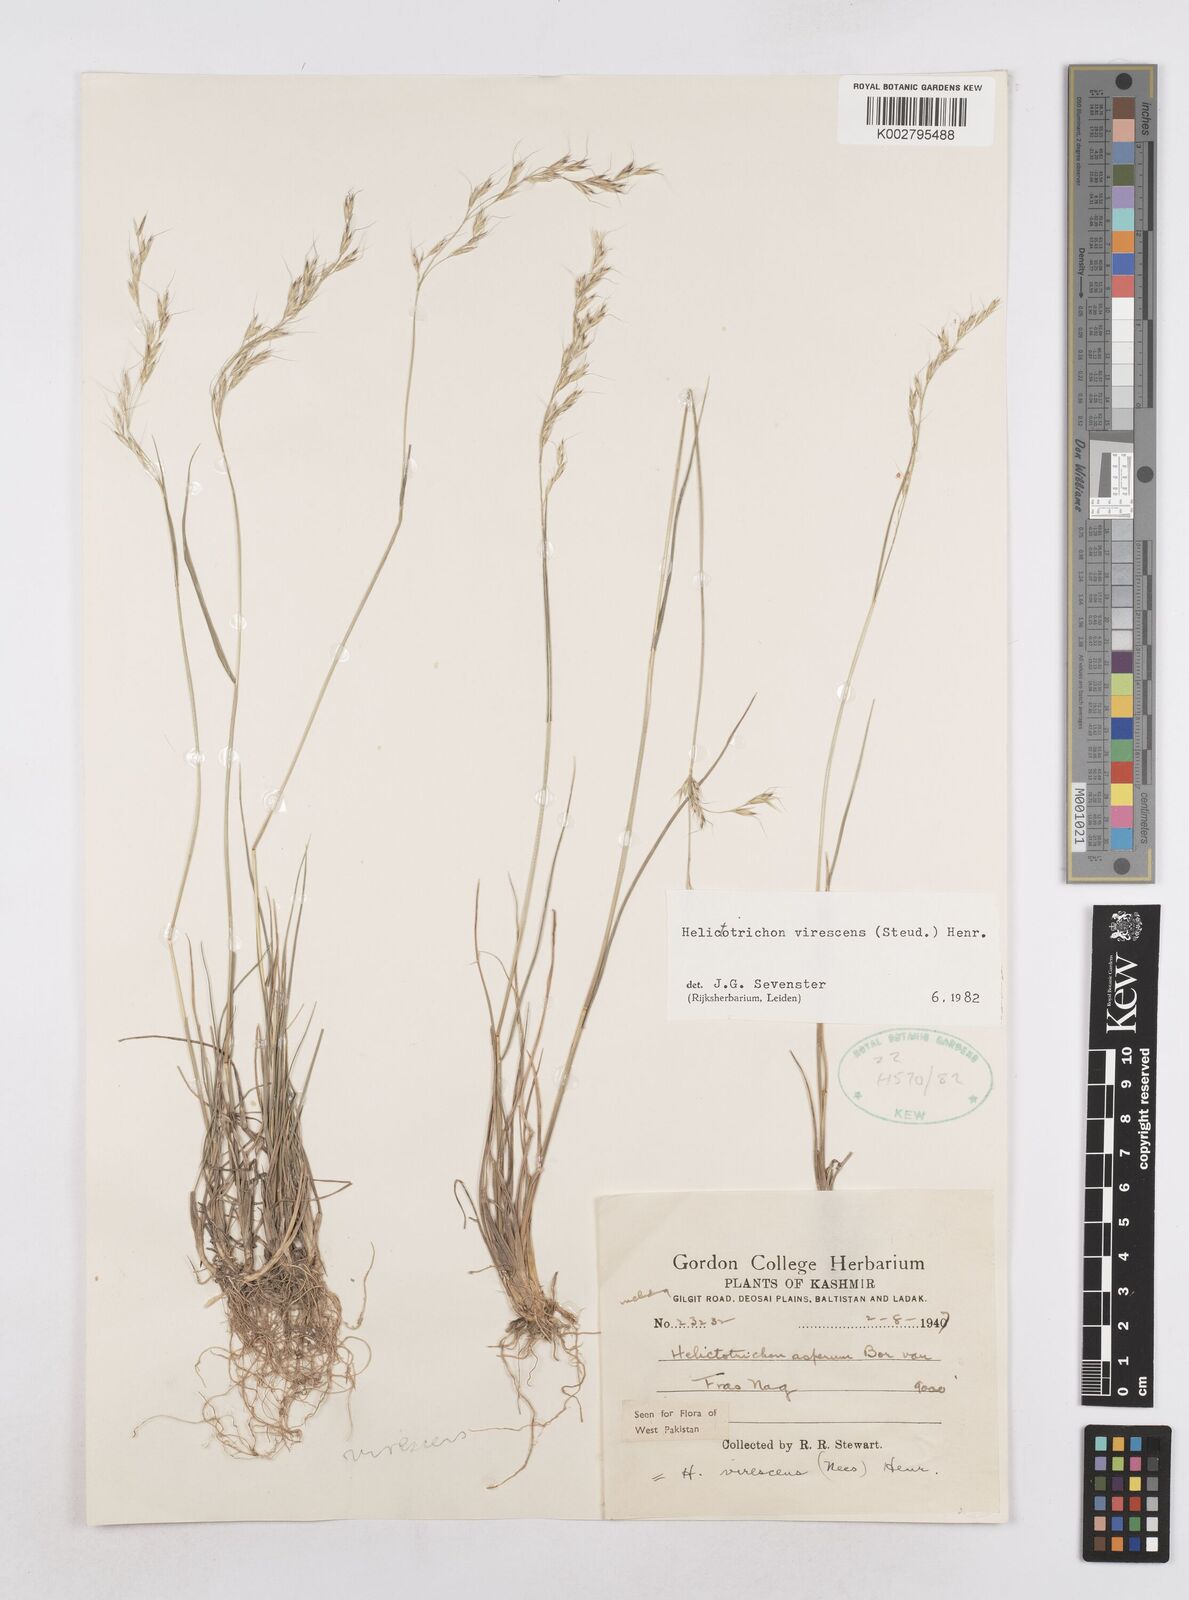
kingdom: Plantae
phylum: Tracheophyta
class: Liliopsida
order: Poales
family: Poaceae
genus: Trisetopsis
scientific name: Trisetopsis junghuhnii
